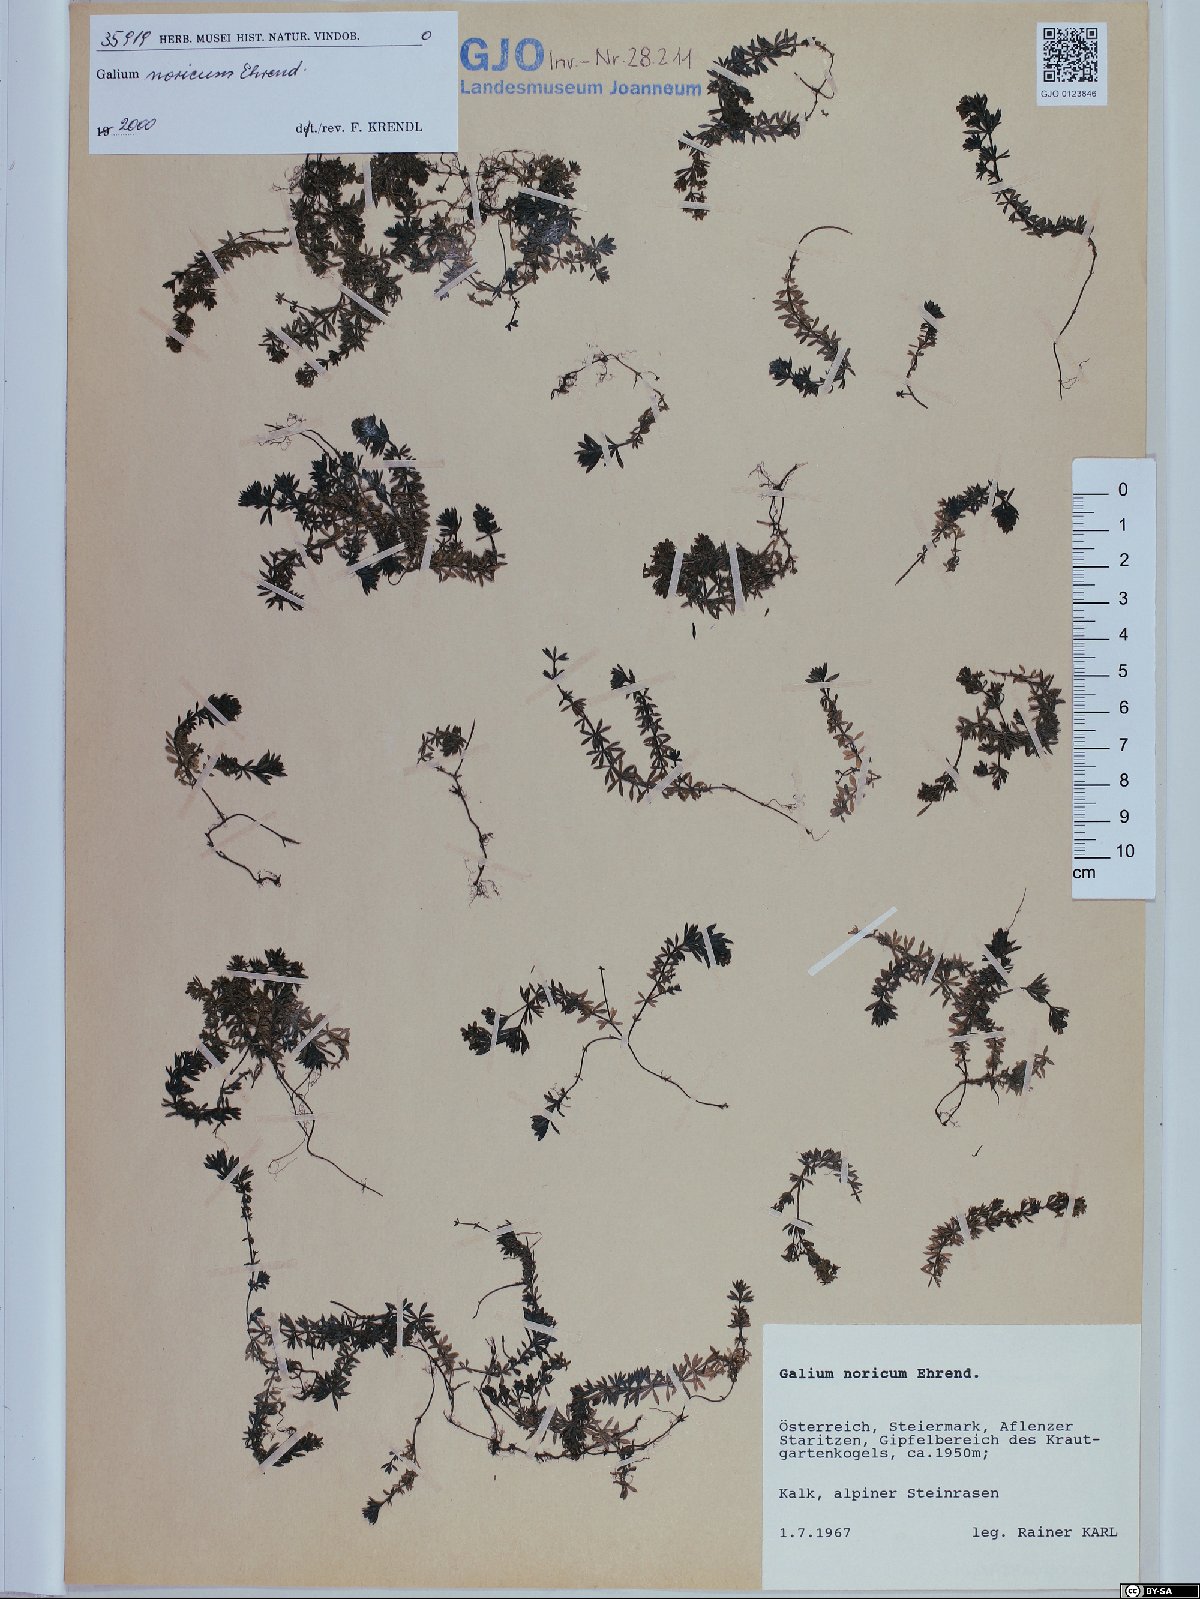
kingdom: Plantae
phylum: Tracheophyta
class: Magnoliopsida
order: Gentianales
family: Rubiaceae
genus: Galium
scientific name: Galium noricum
